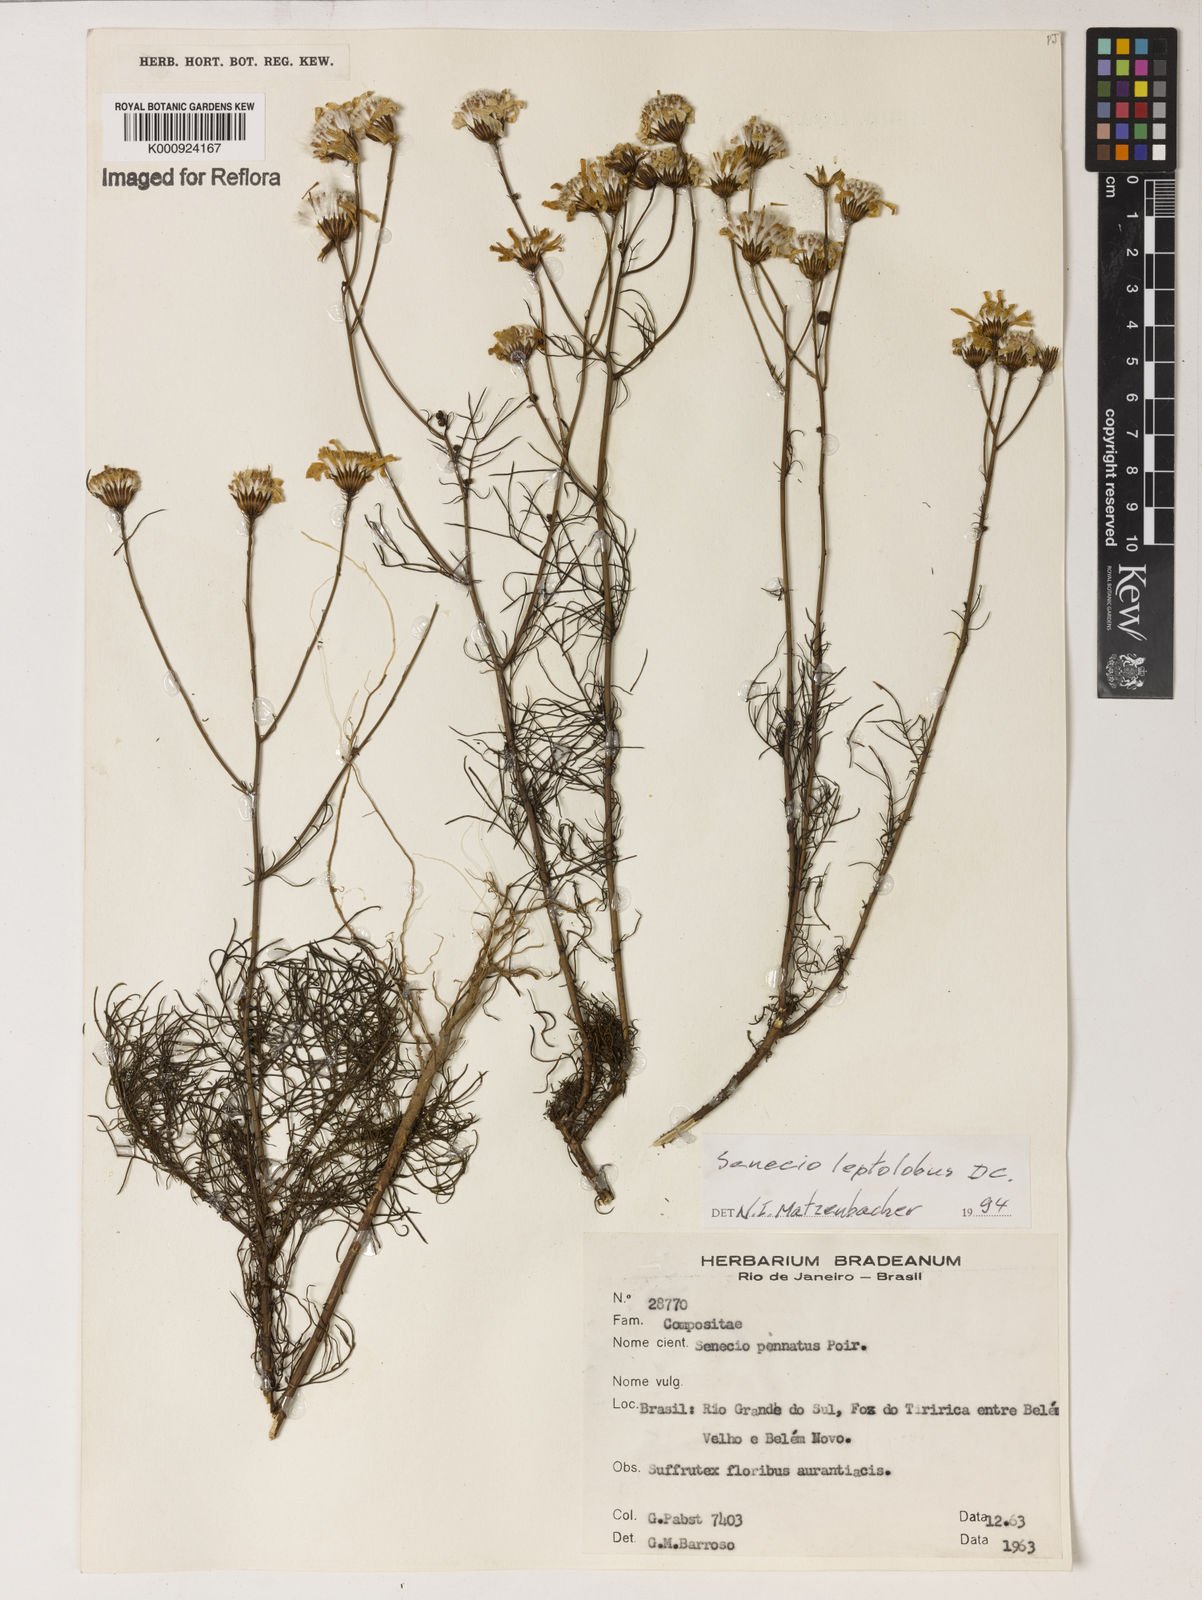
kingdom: Plantae
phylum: Tracheophyta
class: Magnoliopsida
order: Asterales
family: Asteraceae
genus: Senecio
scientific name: Senecio leptolobus
